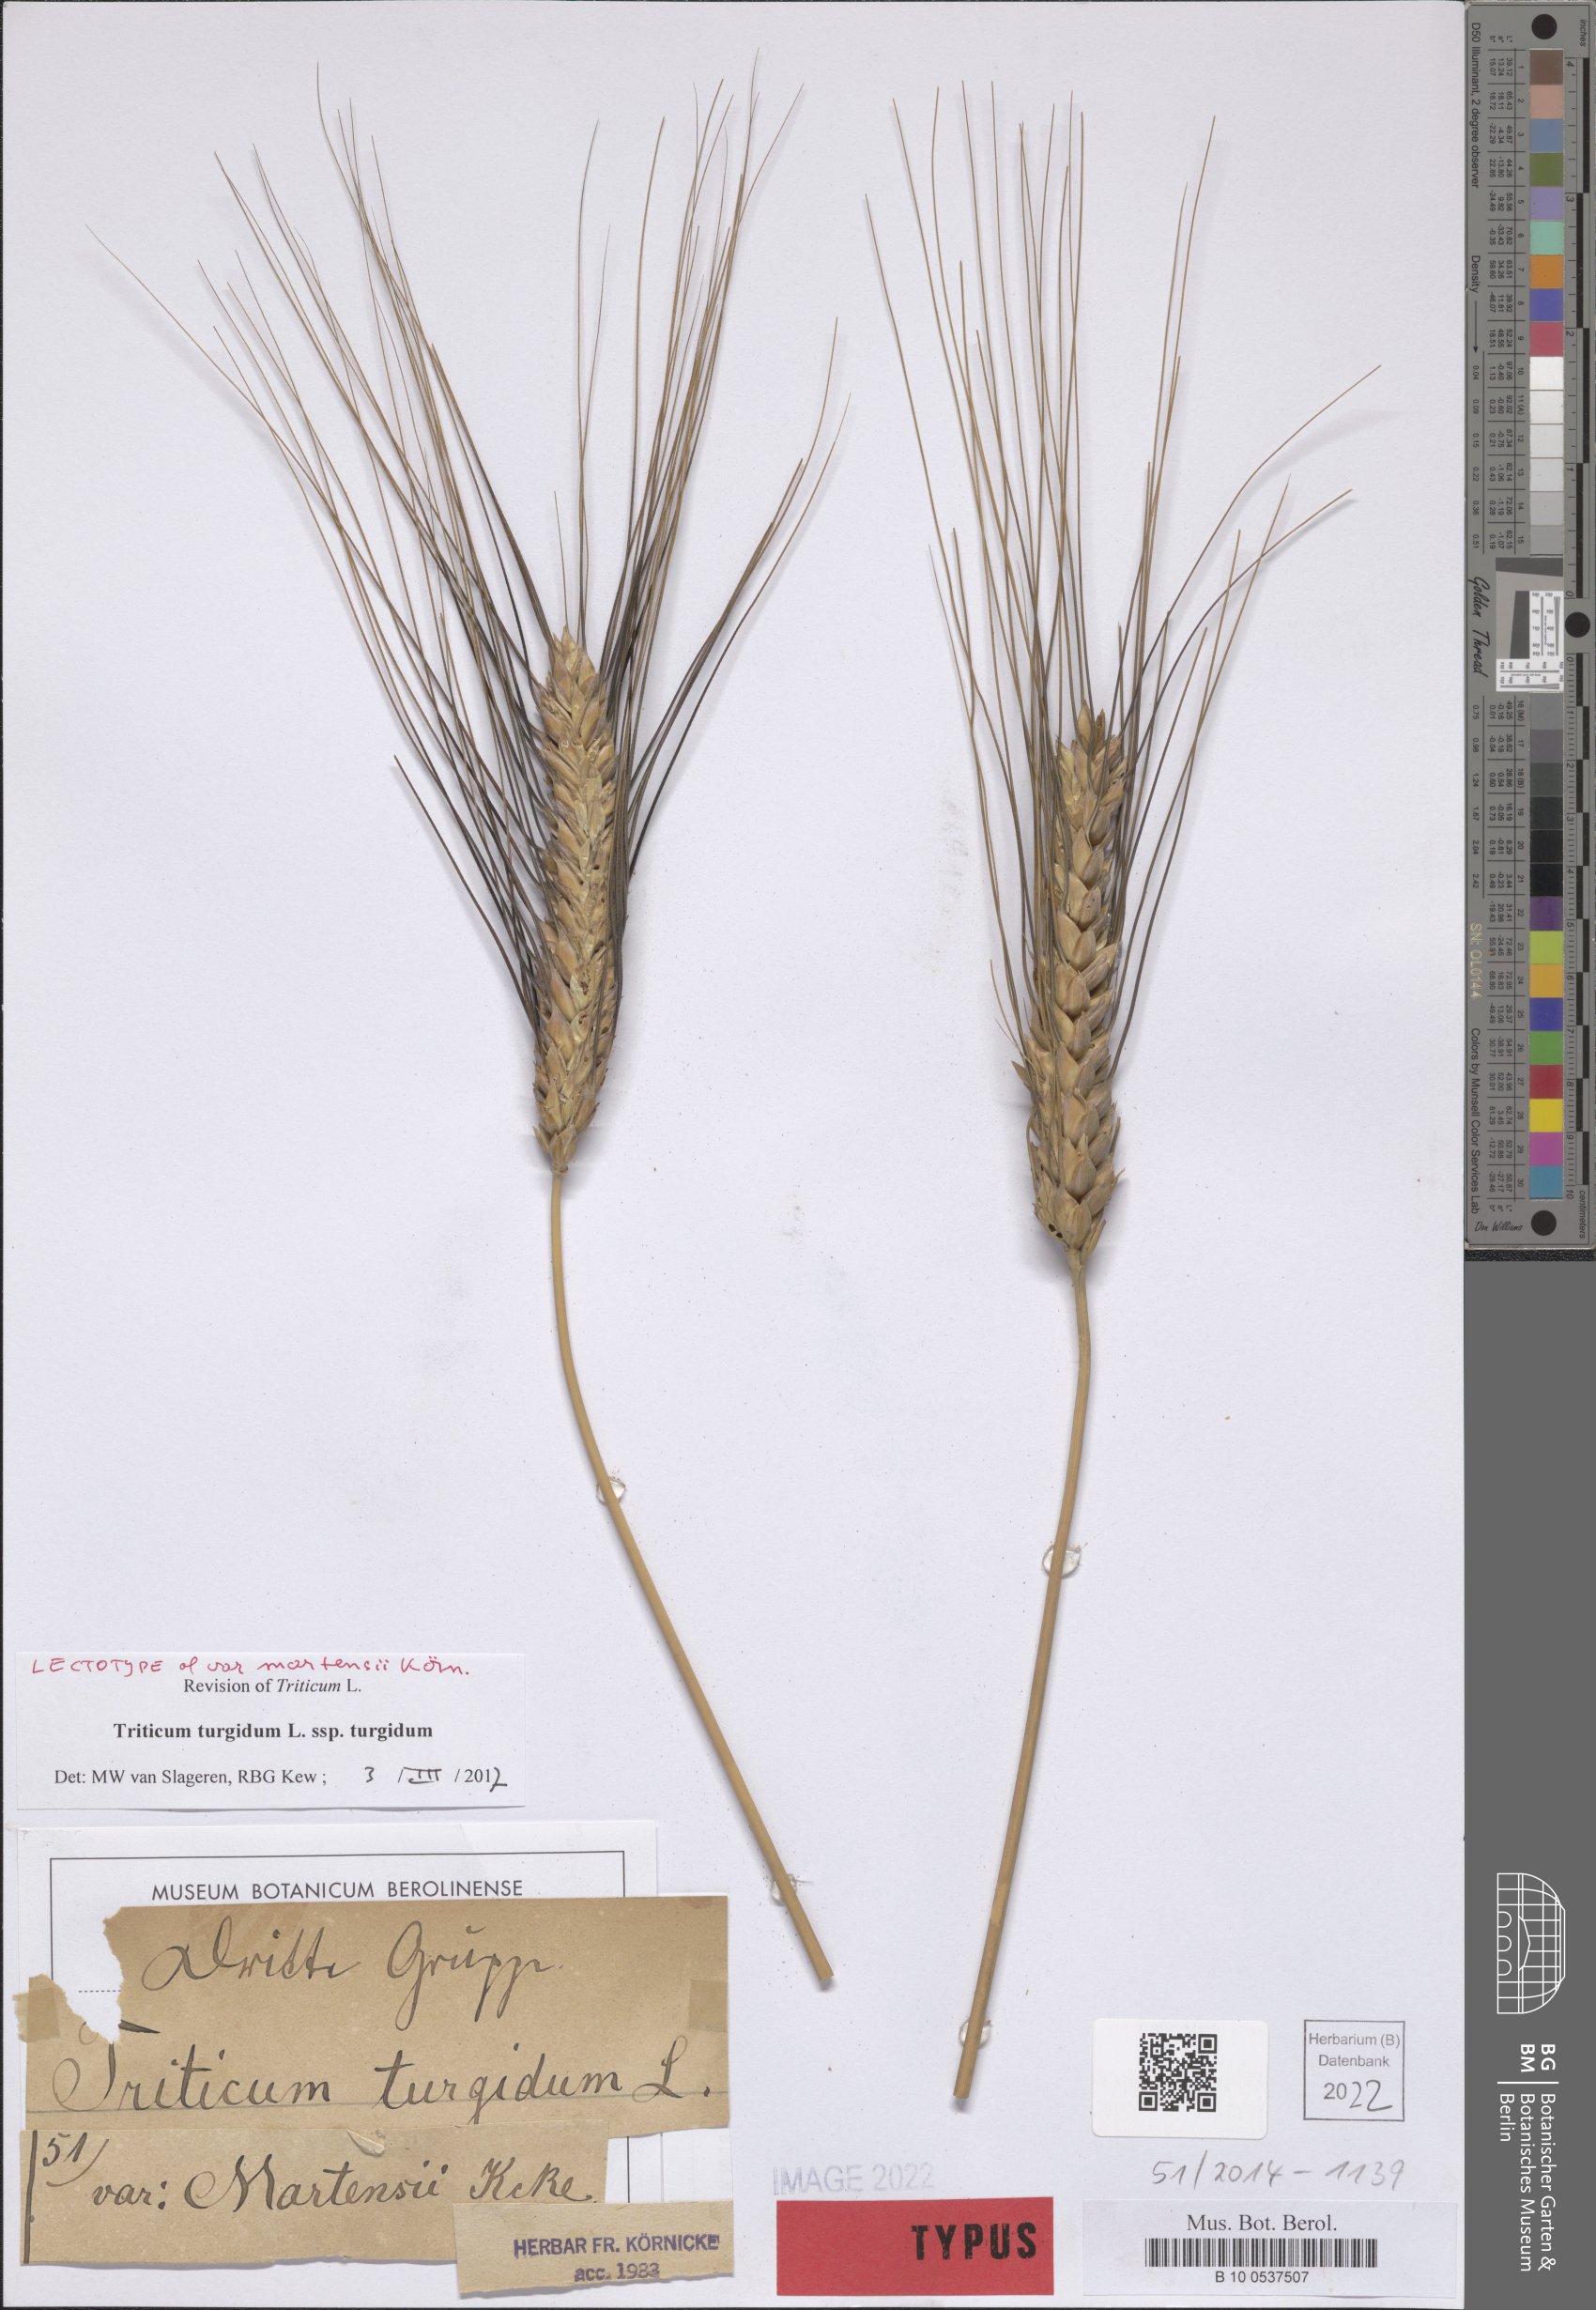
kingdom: Plantae
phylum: Tracheophyta
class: Liliopsida
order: Poales
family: Poaceae
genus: Triticum
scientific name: Triticum turgidum
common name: Rivet wheat
